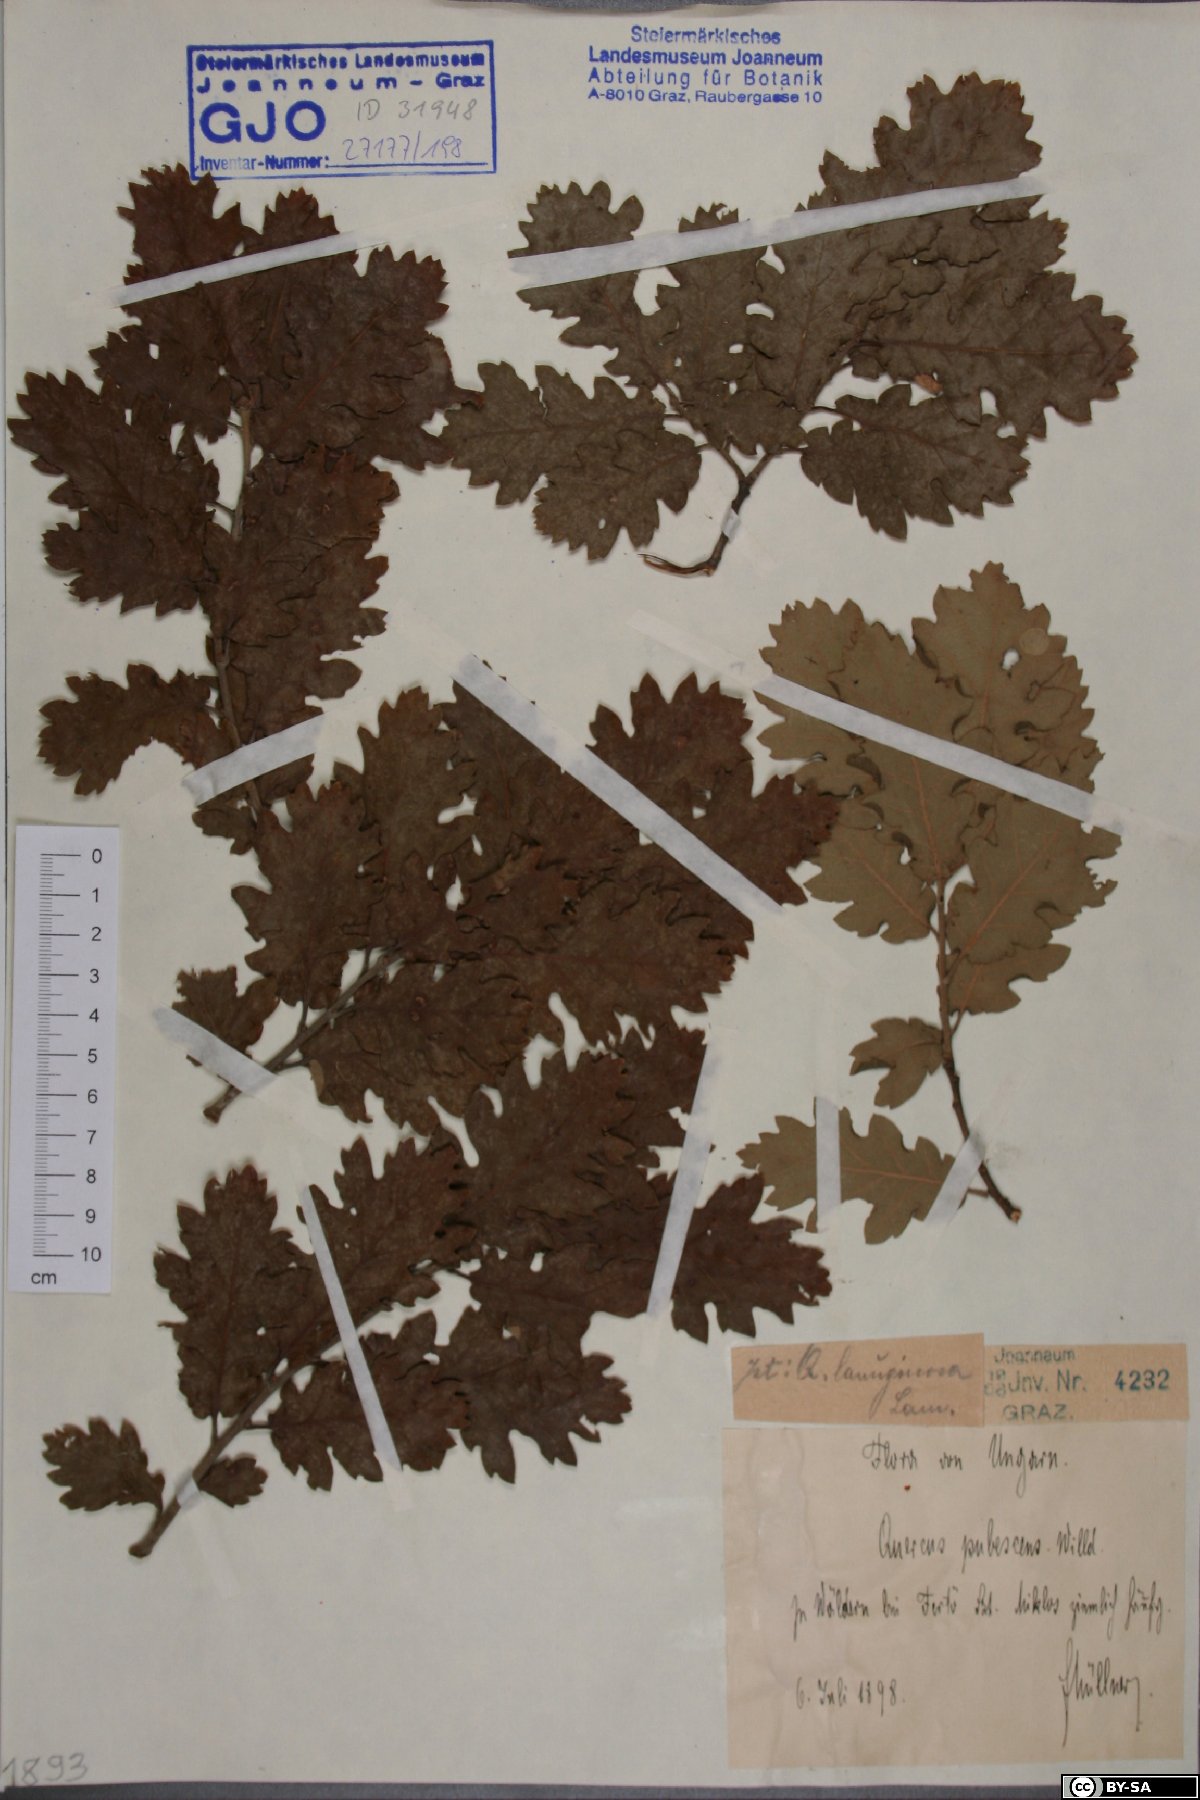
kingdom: Plantae
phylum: Tracheophyta
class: Magnoliopsida
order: Fagales
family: Fagaceae
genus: Quercus
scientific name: Quercus pubescens
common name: Downy oak
